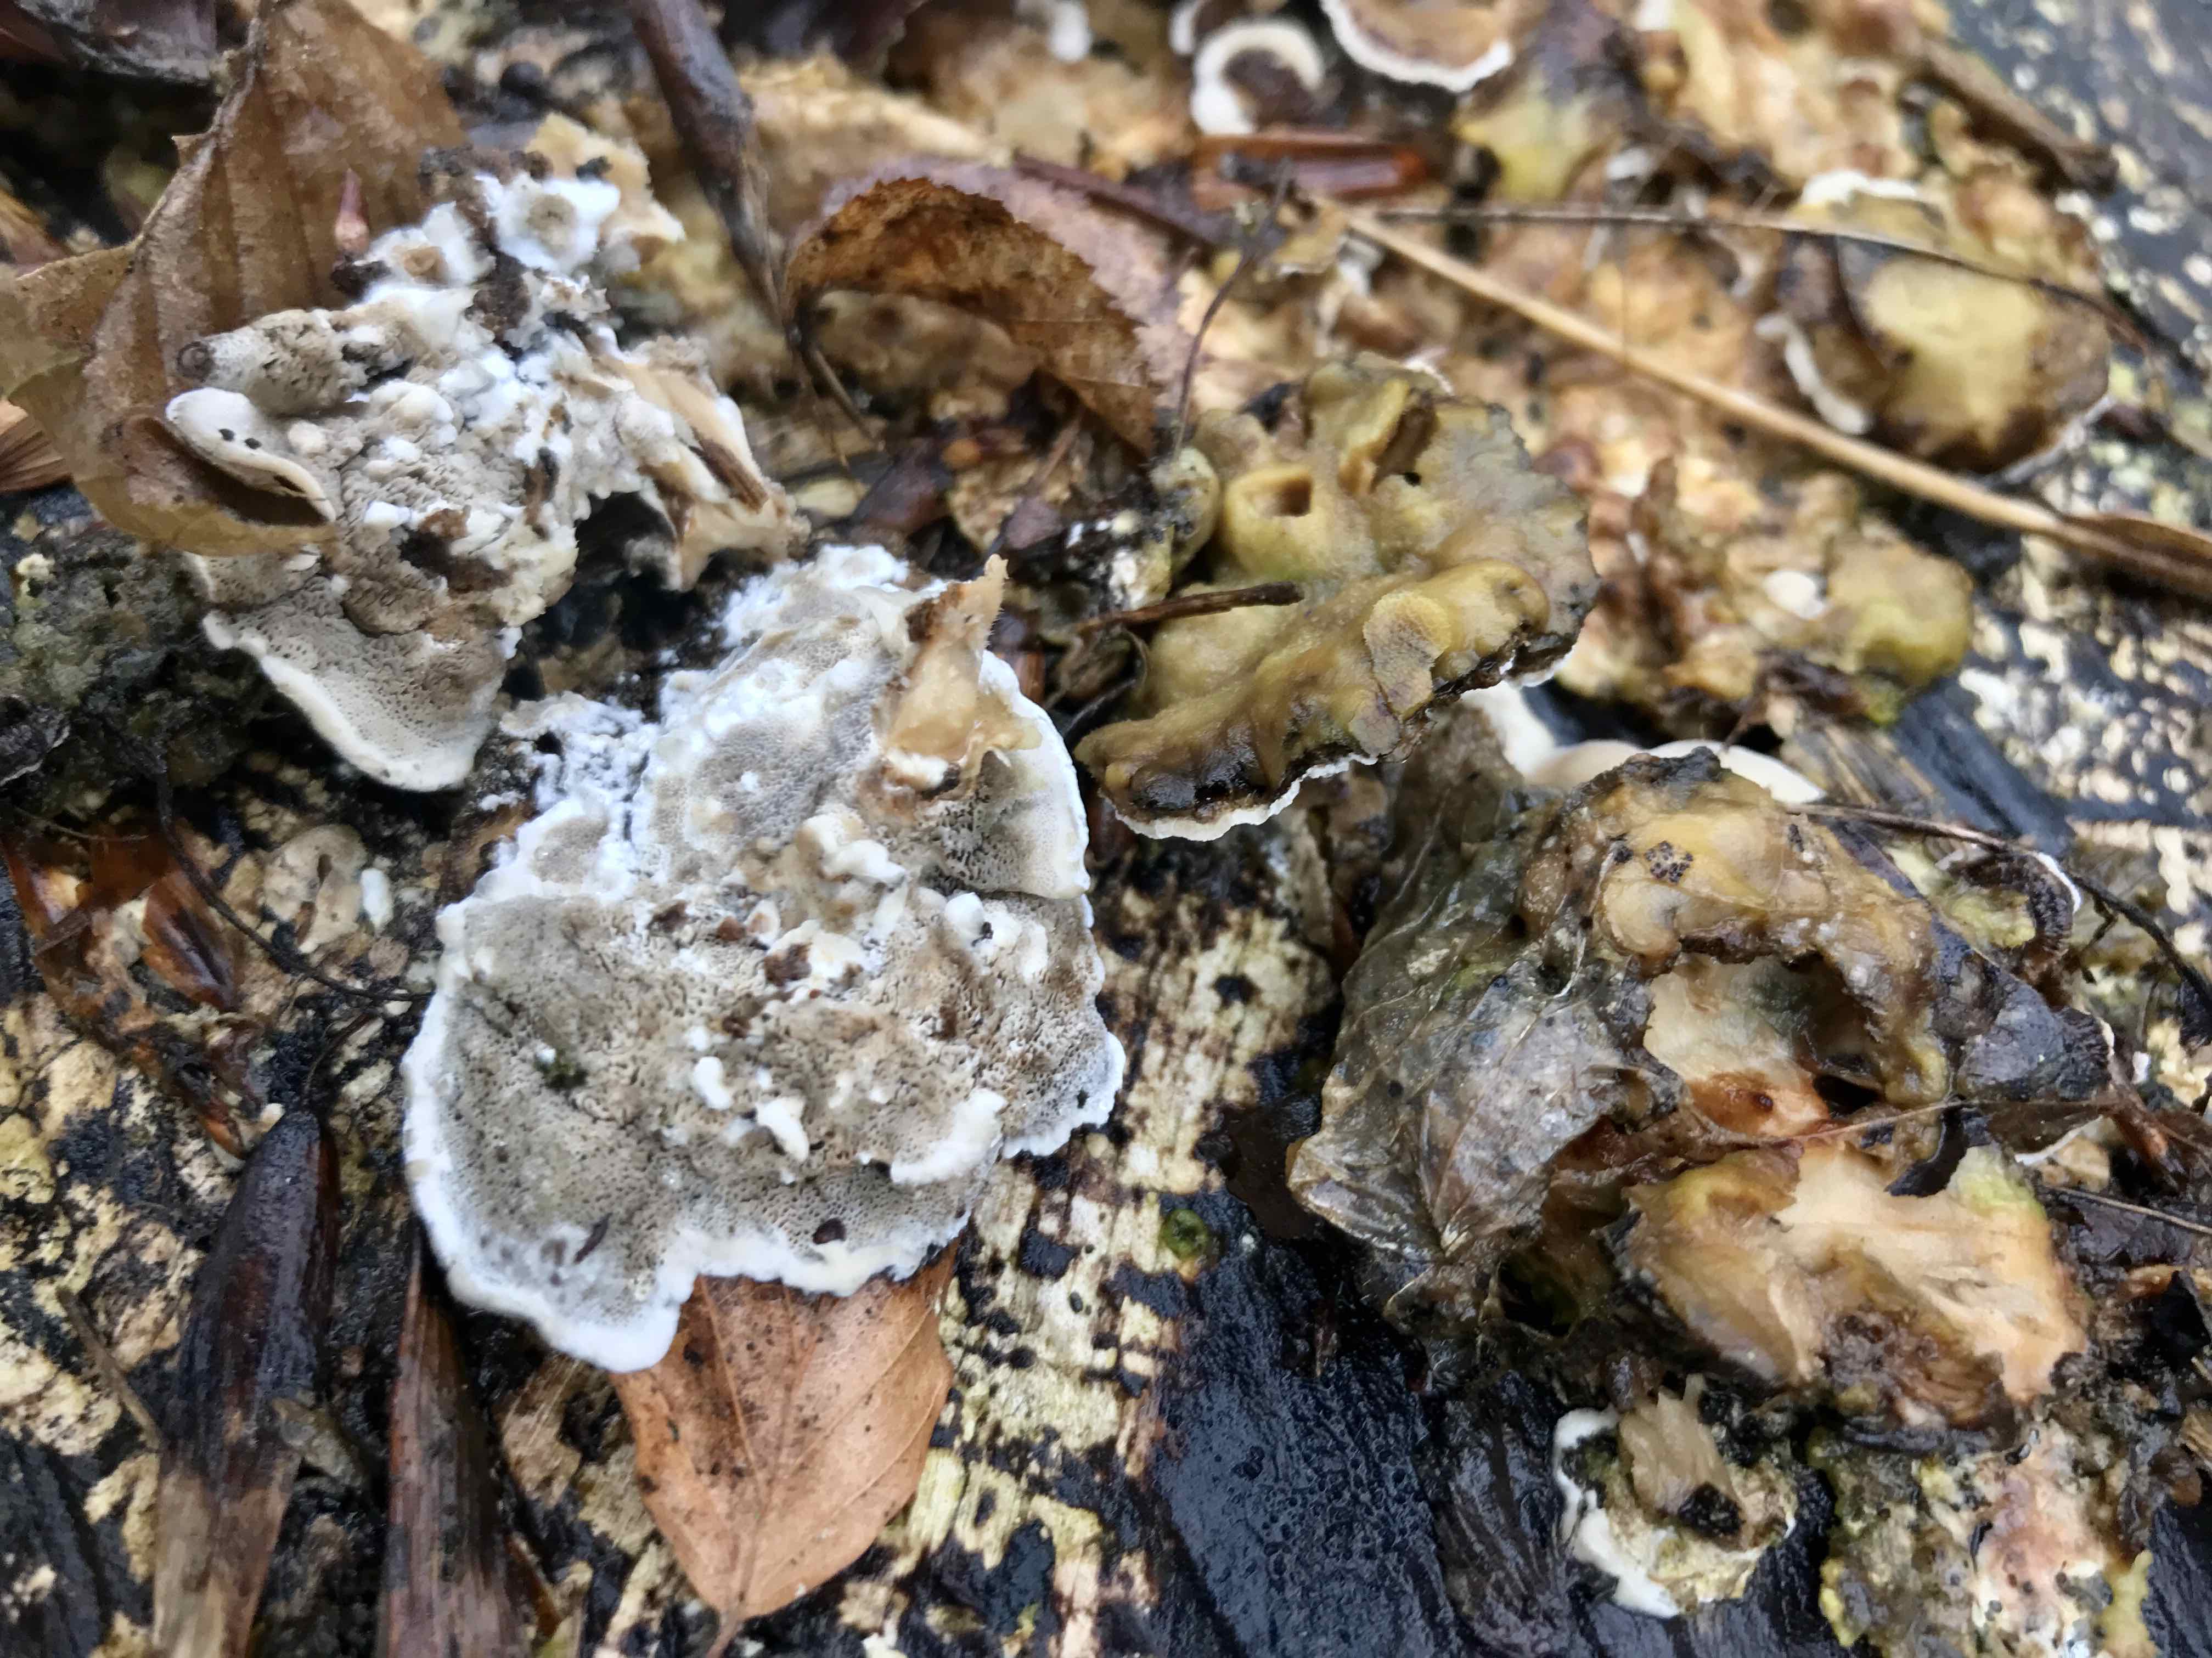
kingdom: Fungi
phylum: Basidiomycota
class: Agaricomycetes
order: Polyporales
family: Phanerochaetaceae
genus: Bjerkandera
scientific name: Bjerkandera adusta
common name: sveden sodporesvamp
